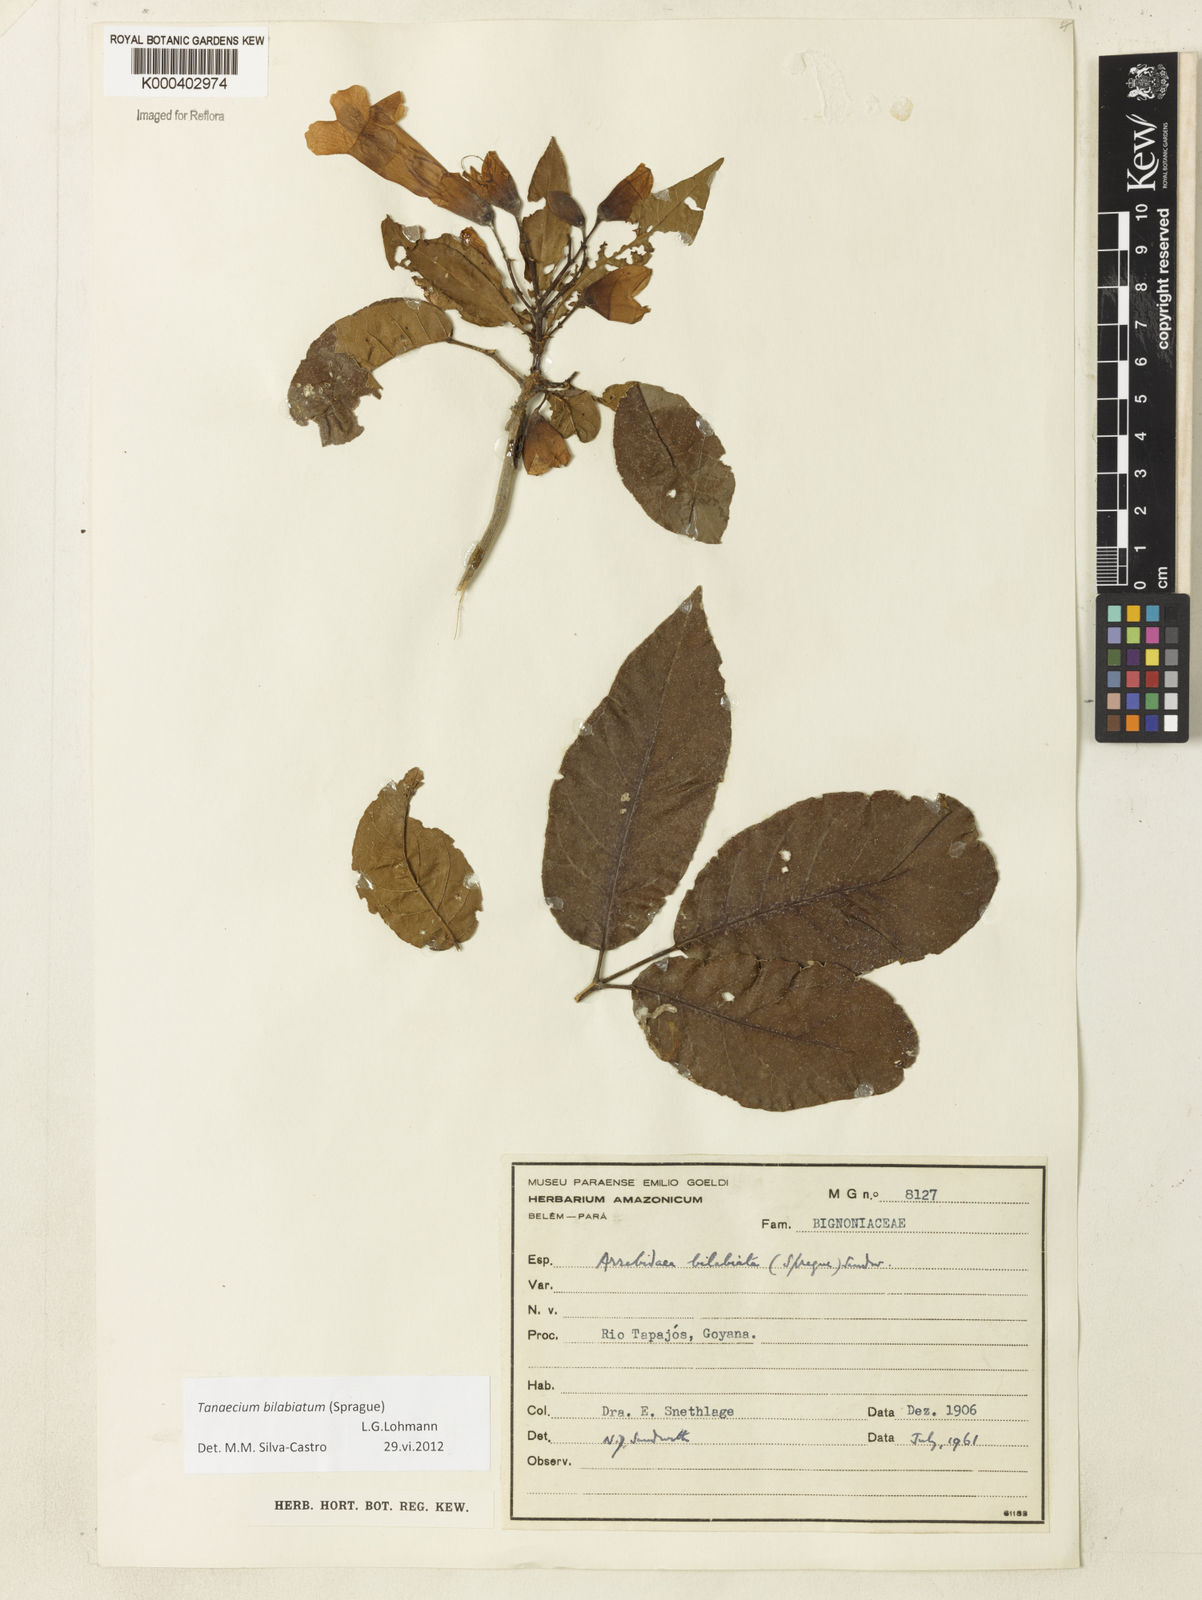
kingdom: Plantae
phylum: Tracheophyta
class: Magnoliopsida
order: Lamiales
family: Bignoniaceae
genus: Tanaecium
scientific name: Tanaecium bilabiatum
